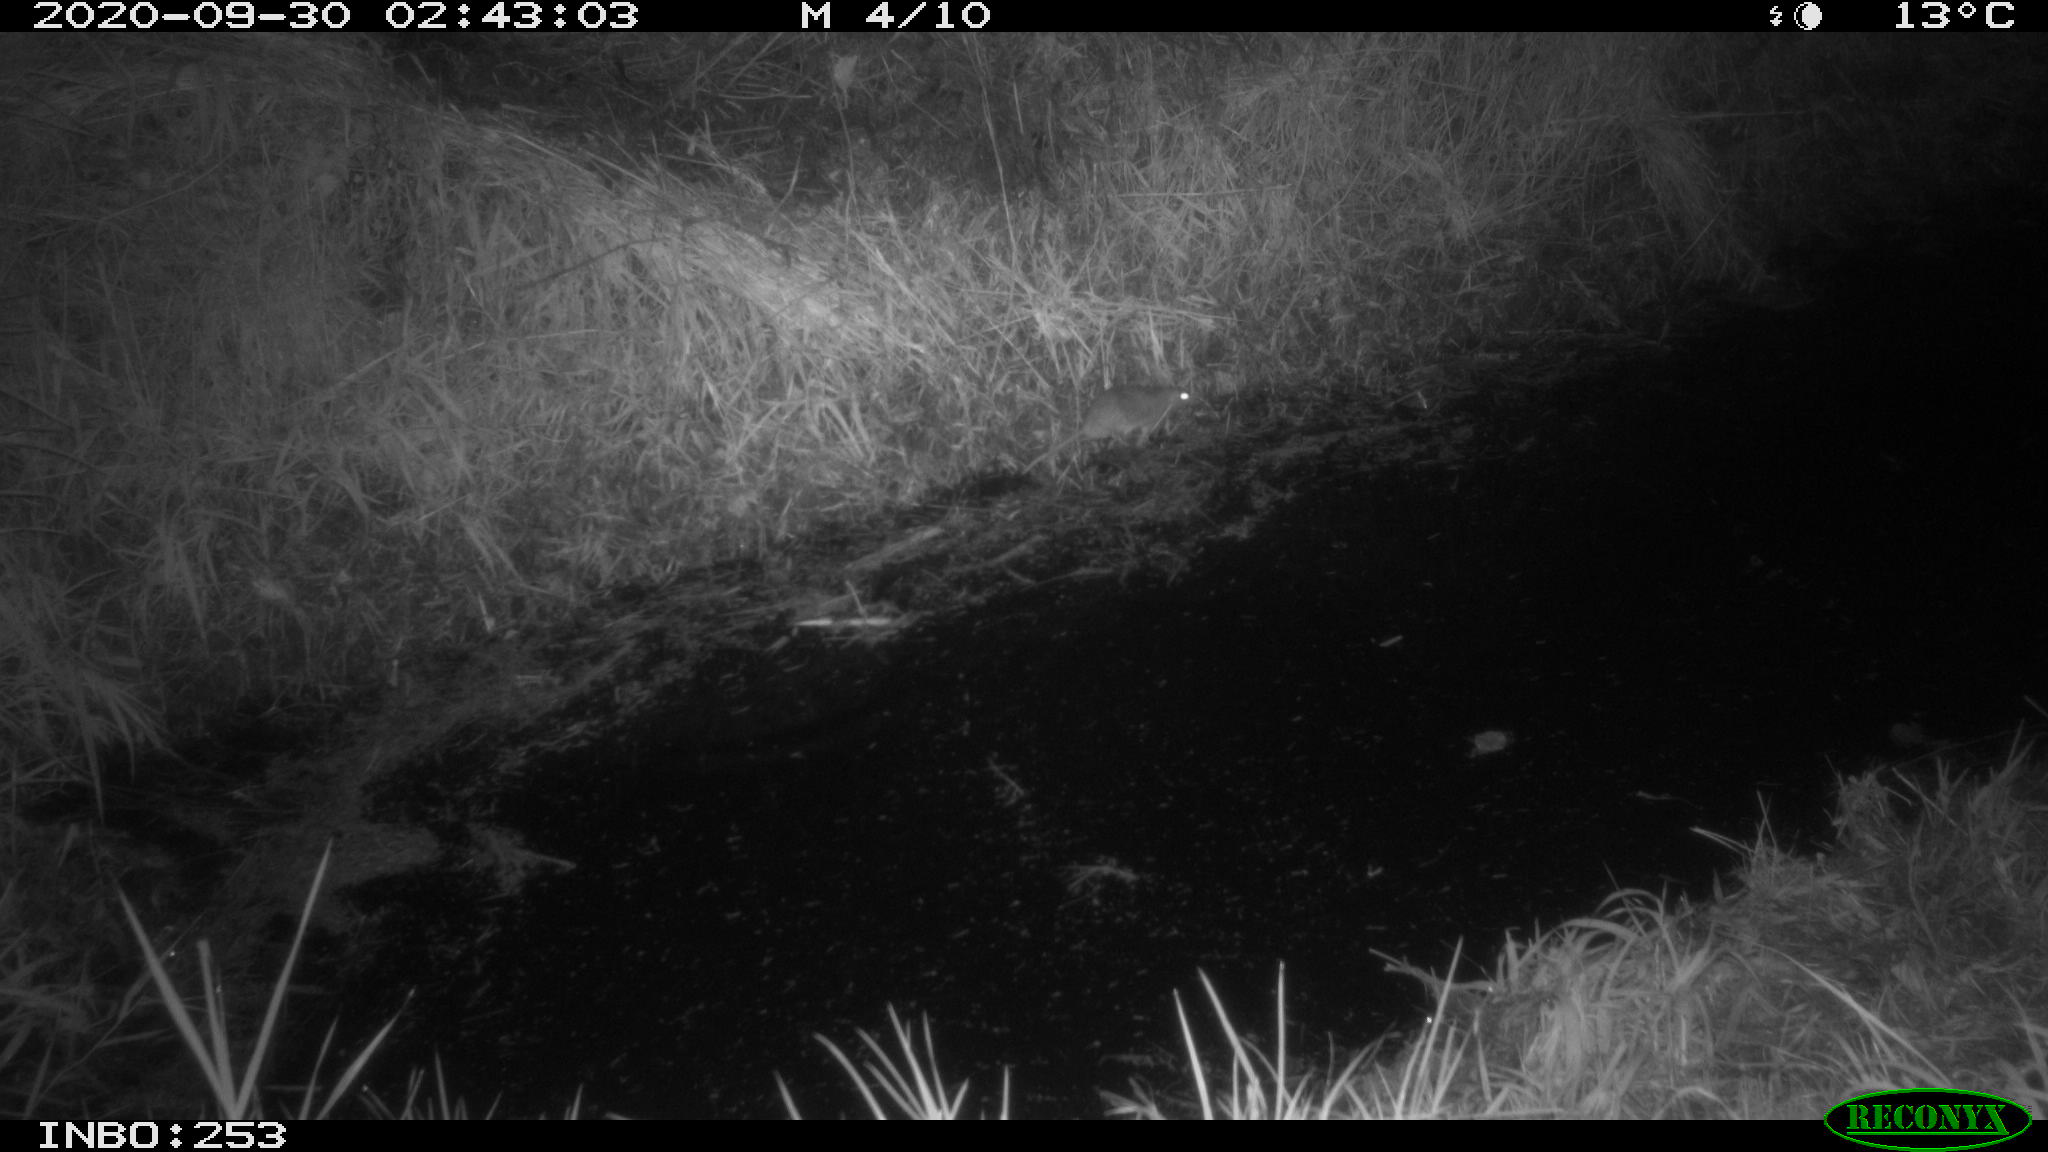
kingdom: Animalia
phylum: Chordata
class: Mammalia
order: Rodentia
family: Muridae
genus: Rattus
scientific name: Rattus norvegicus
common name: Brown rat
